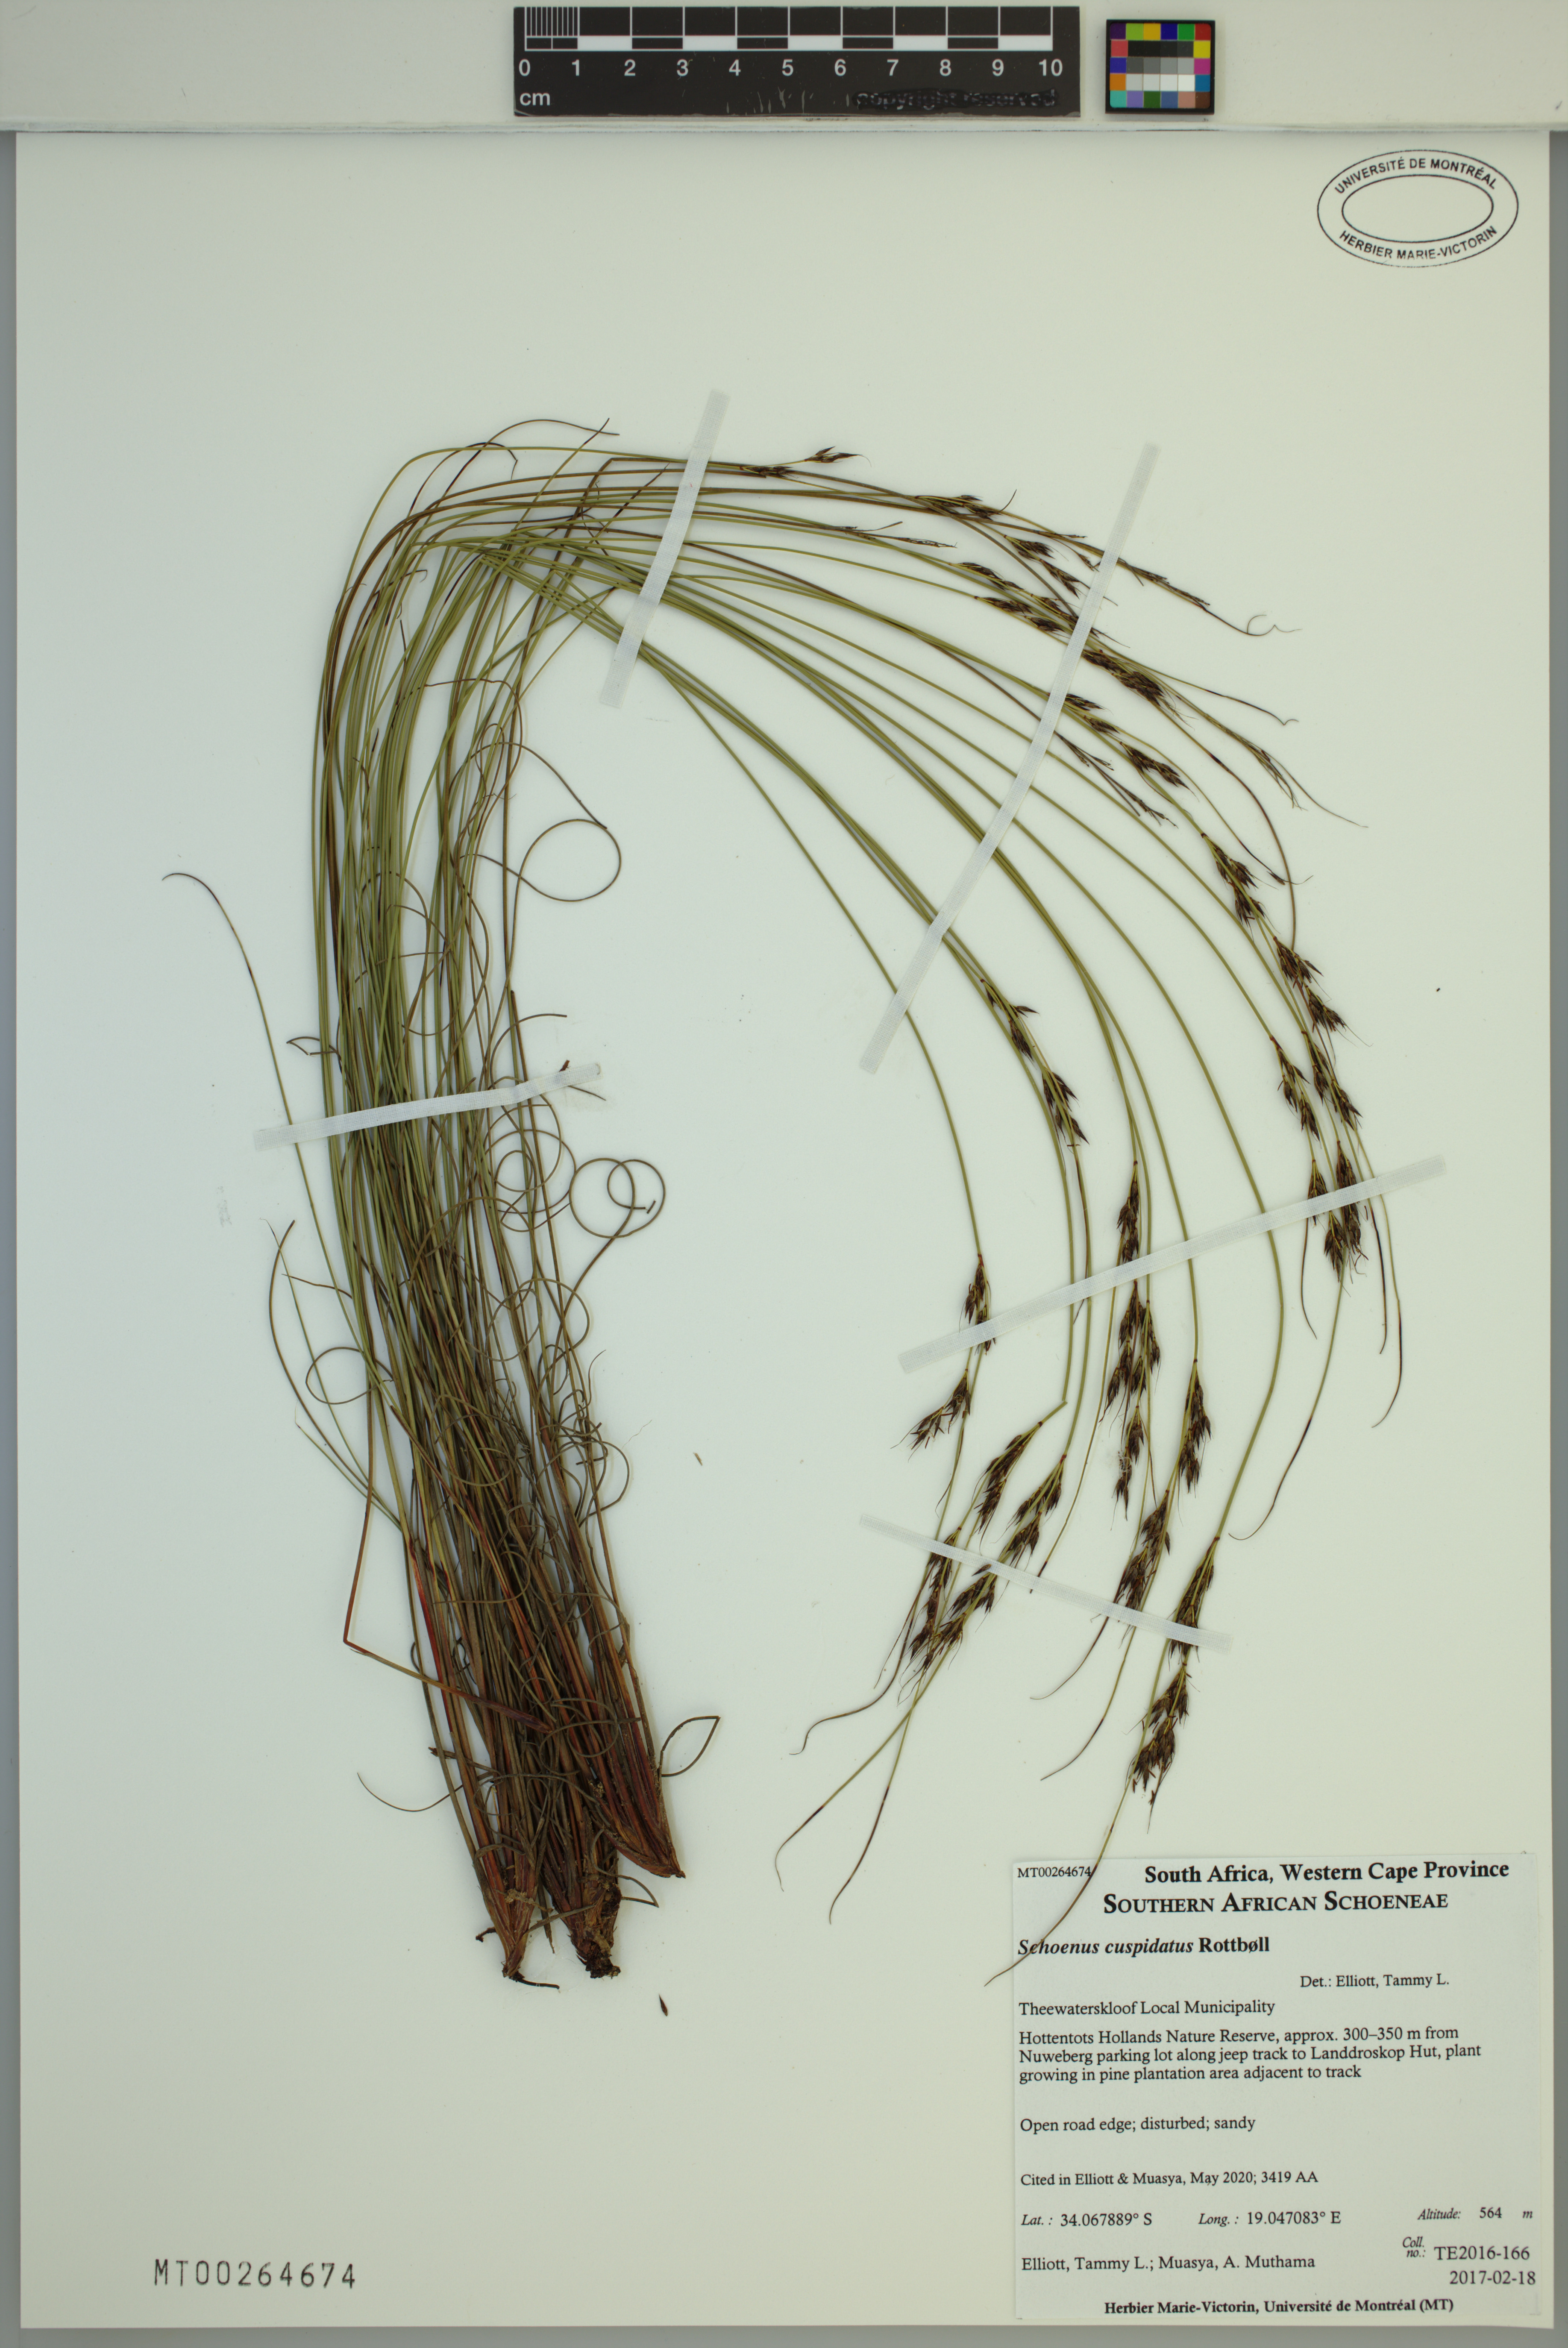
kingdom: Plantae
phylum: Tracheophyta
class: Liliopsida
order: Poales
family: Cyperaceae
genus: Schoenus
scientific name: Schoenus cuspidatus
